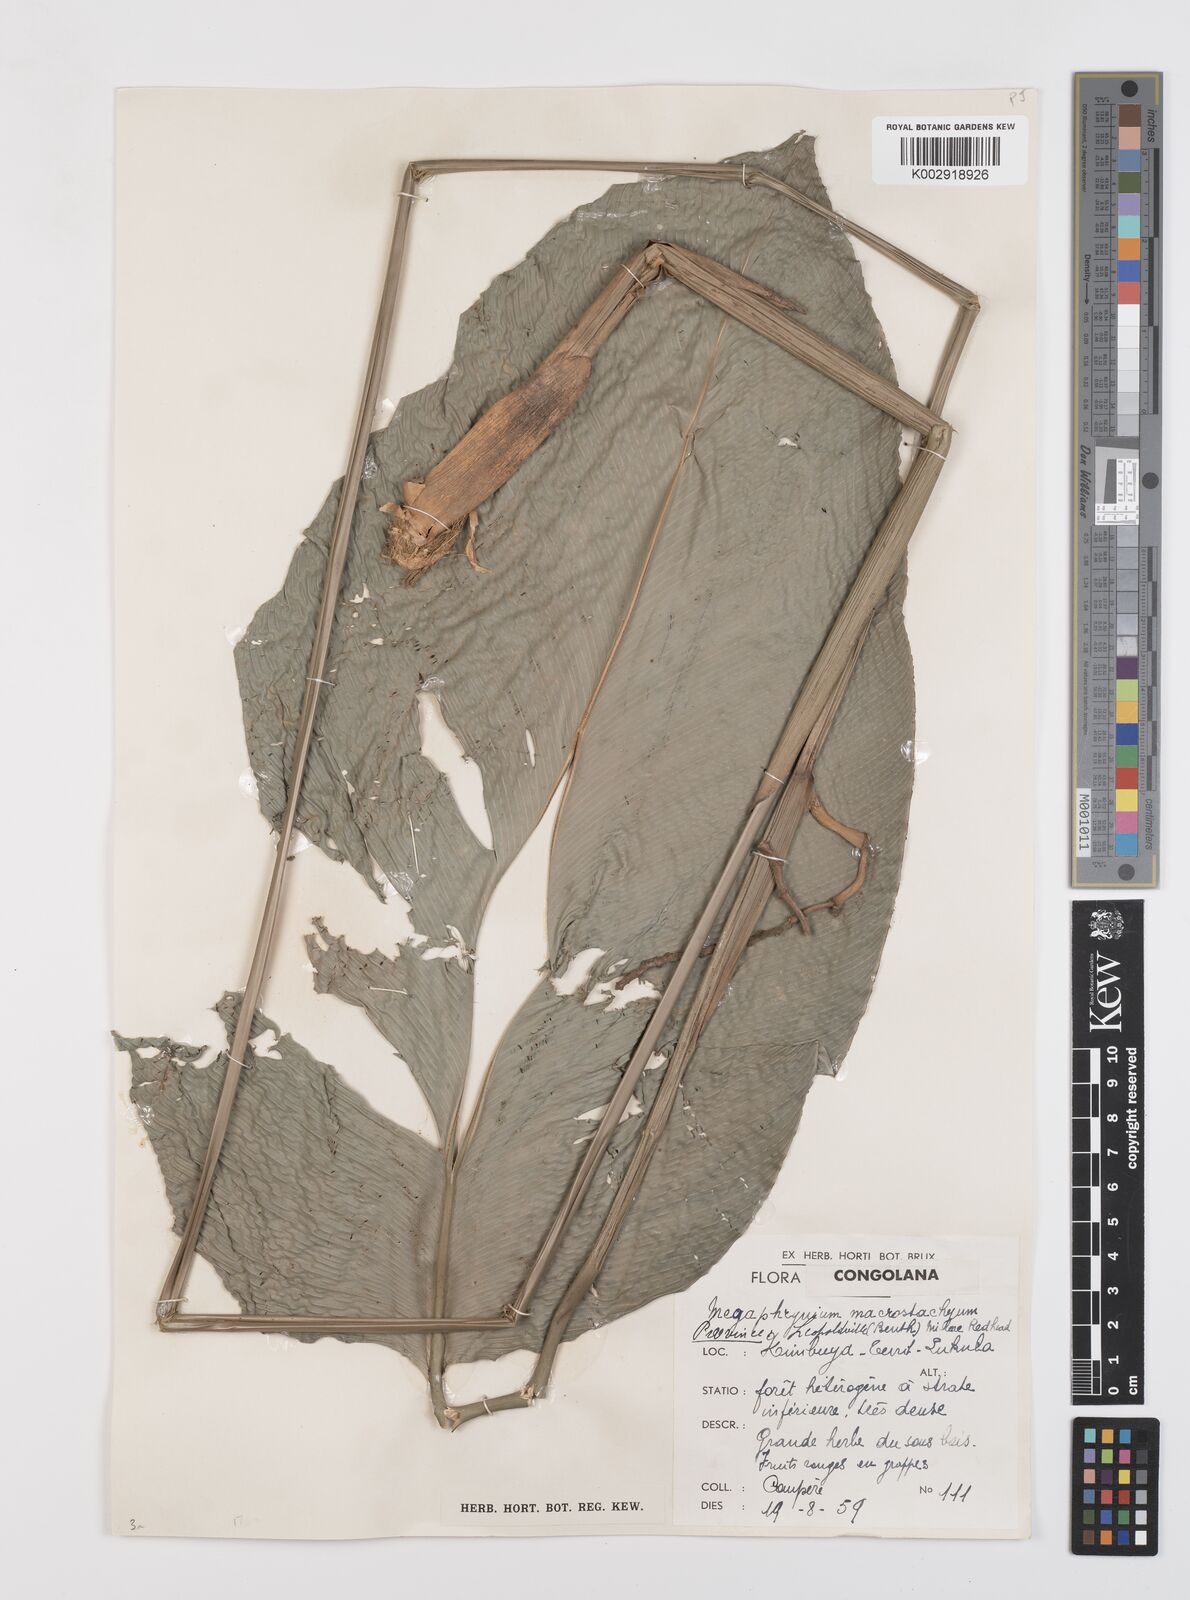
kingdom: Plantae
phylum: Tracheophyta
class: Liliopsida
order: Zingiberales
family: Marantaceae
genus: Megaphrynium
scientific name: Megaphrynium macrostachyum
